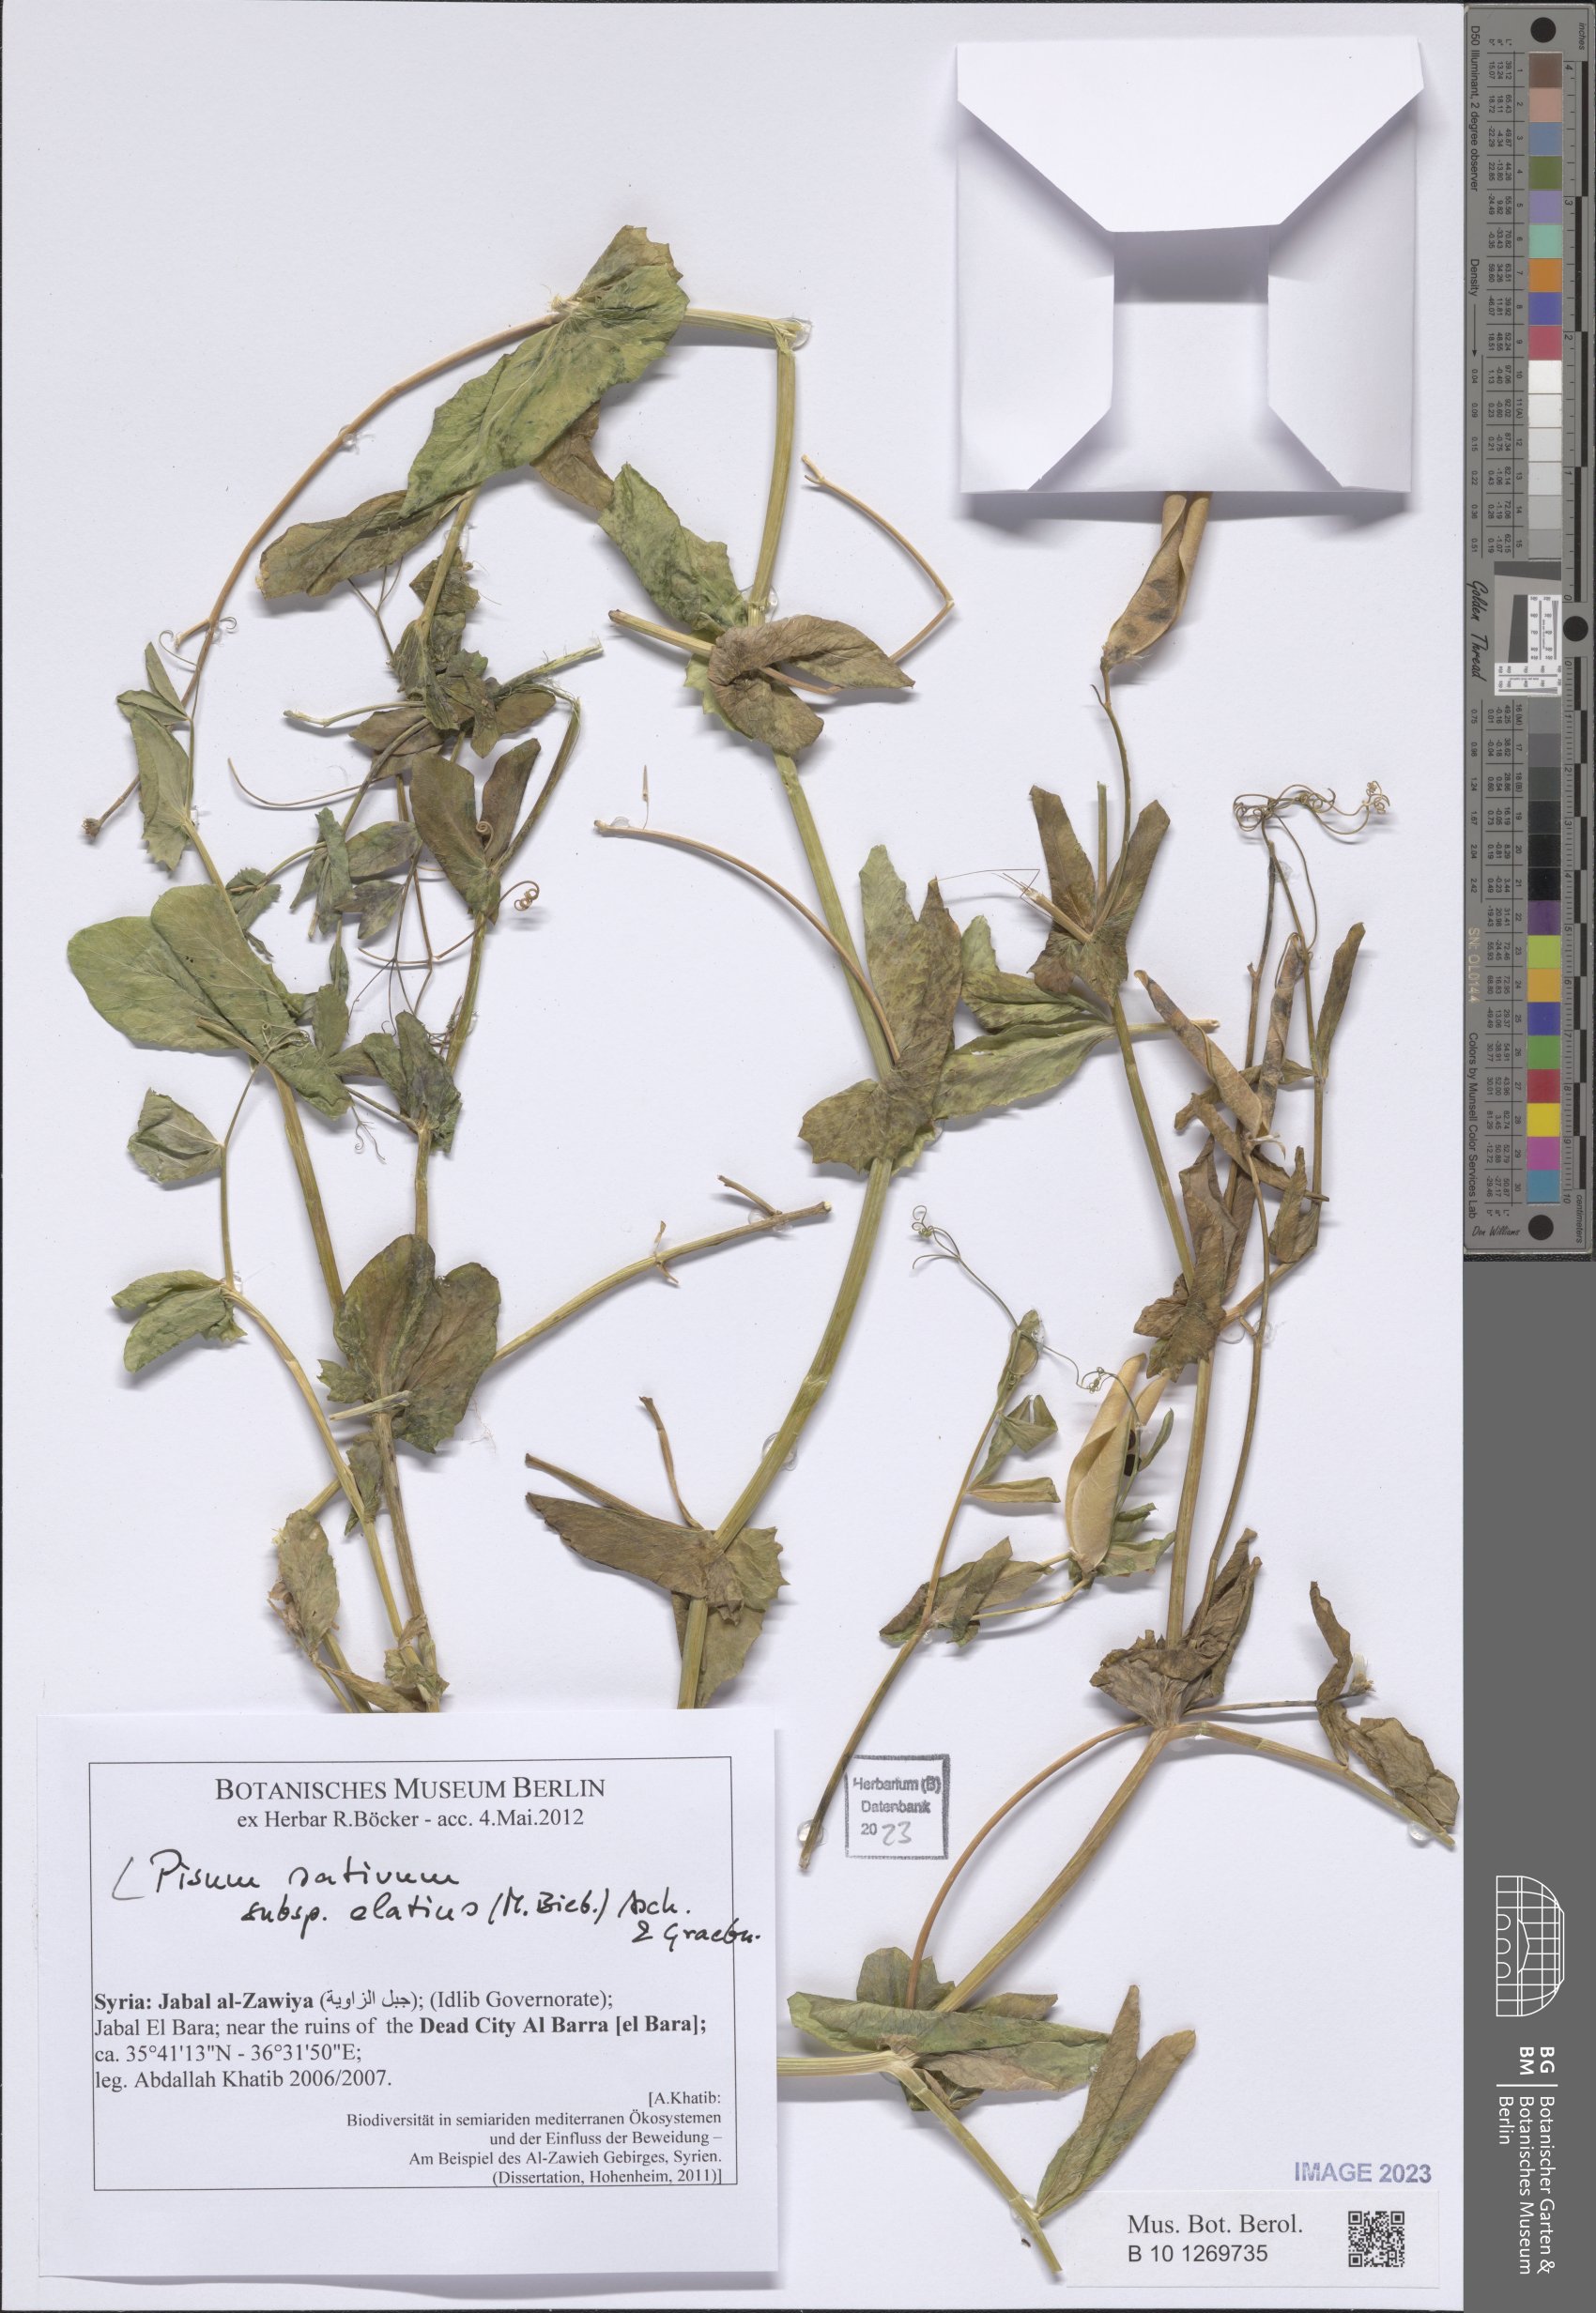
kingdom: Plantae
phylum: Tracheophyta
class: Magnoliopsida
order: Fabales
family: Fabaceae
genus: Lathyrus
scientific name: Lathyrus oleraceus
